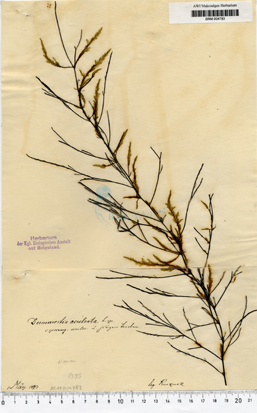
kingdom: Chromista
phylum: Ochrophyta
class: Phaeophyceae
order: Desmarestiales
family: Desmarestiaceae
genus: Desmarestia
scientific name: Desmarestia aculeata
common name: Witch's hair
